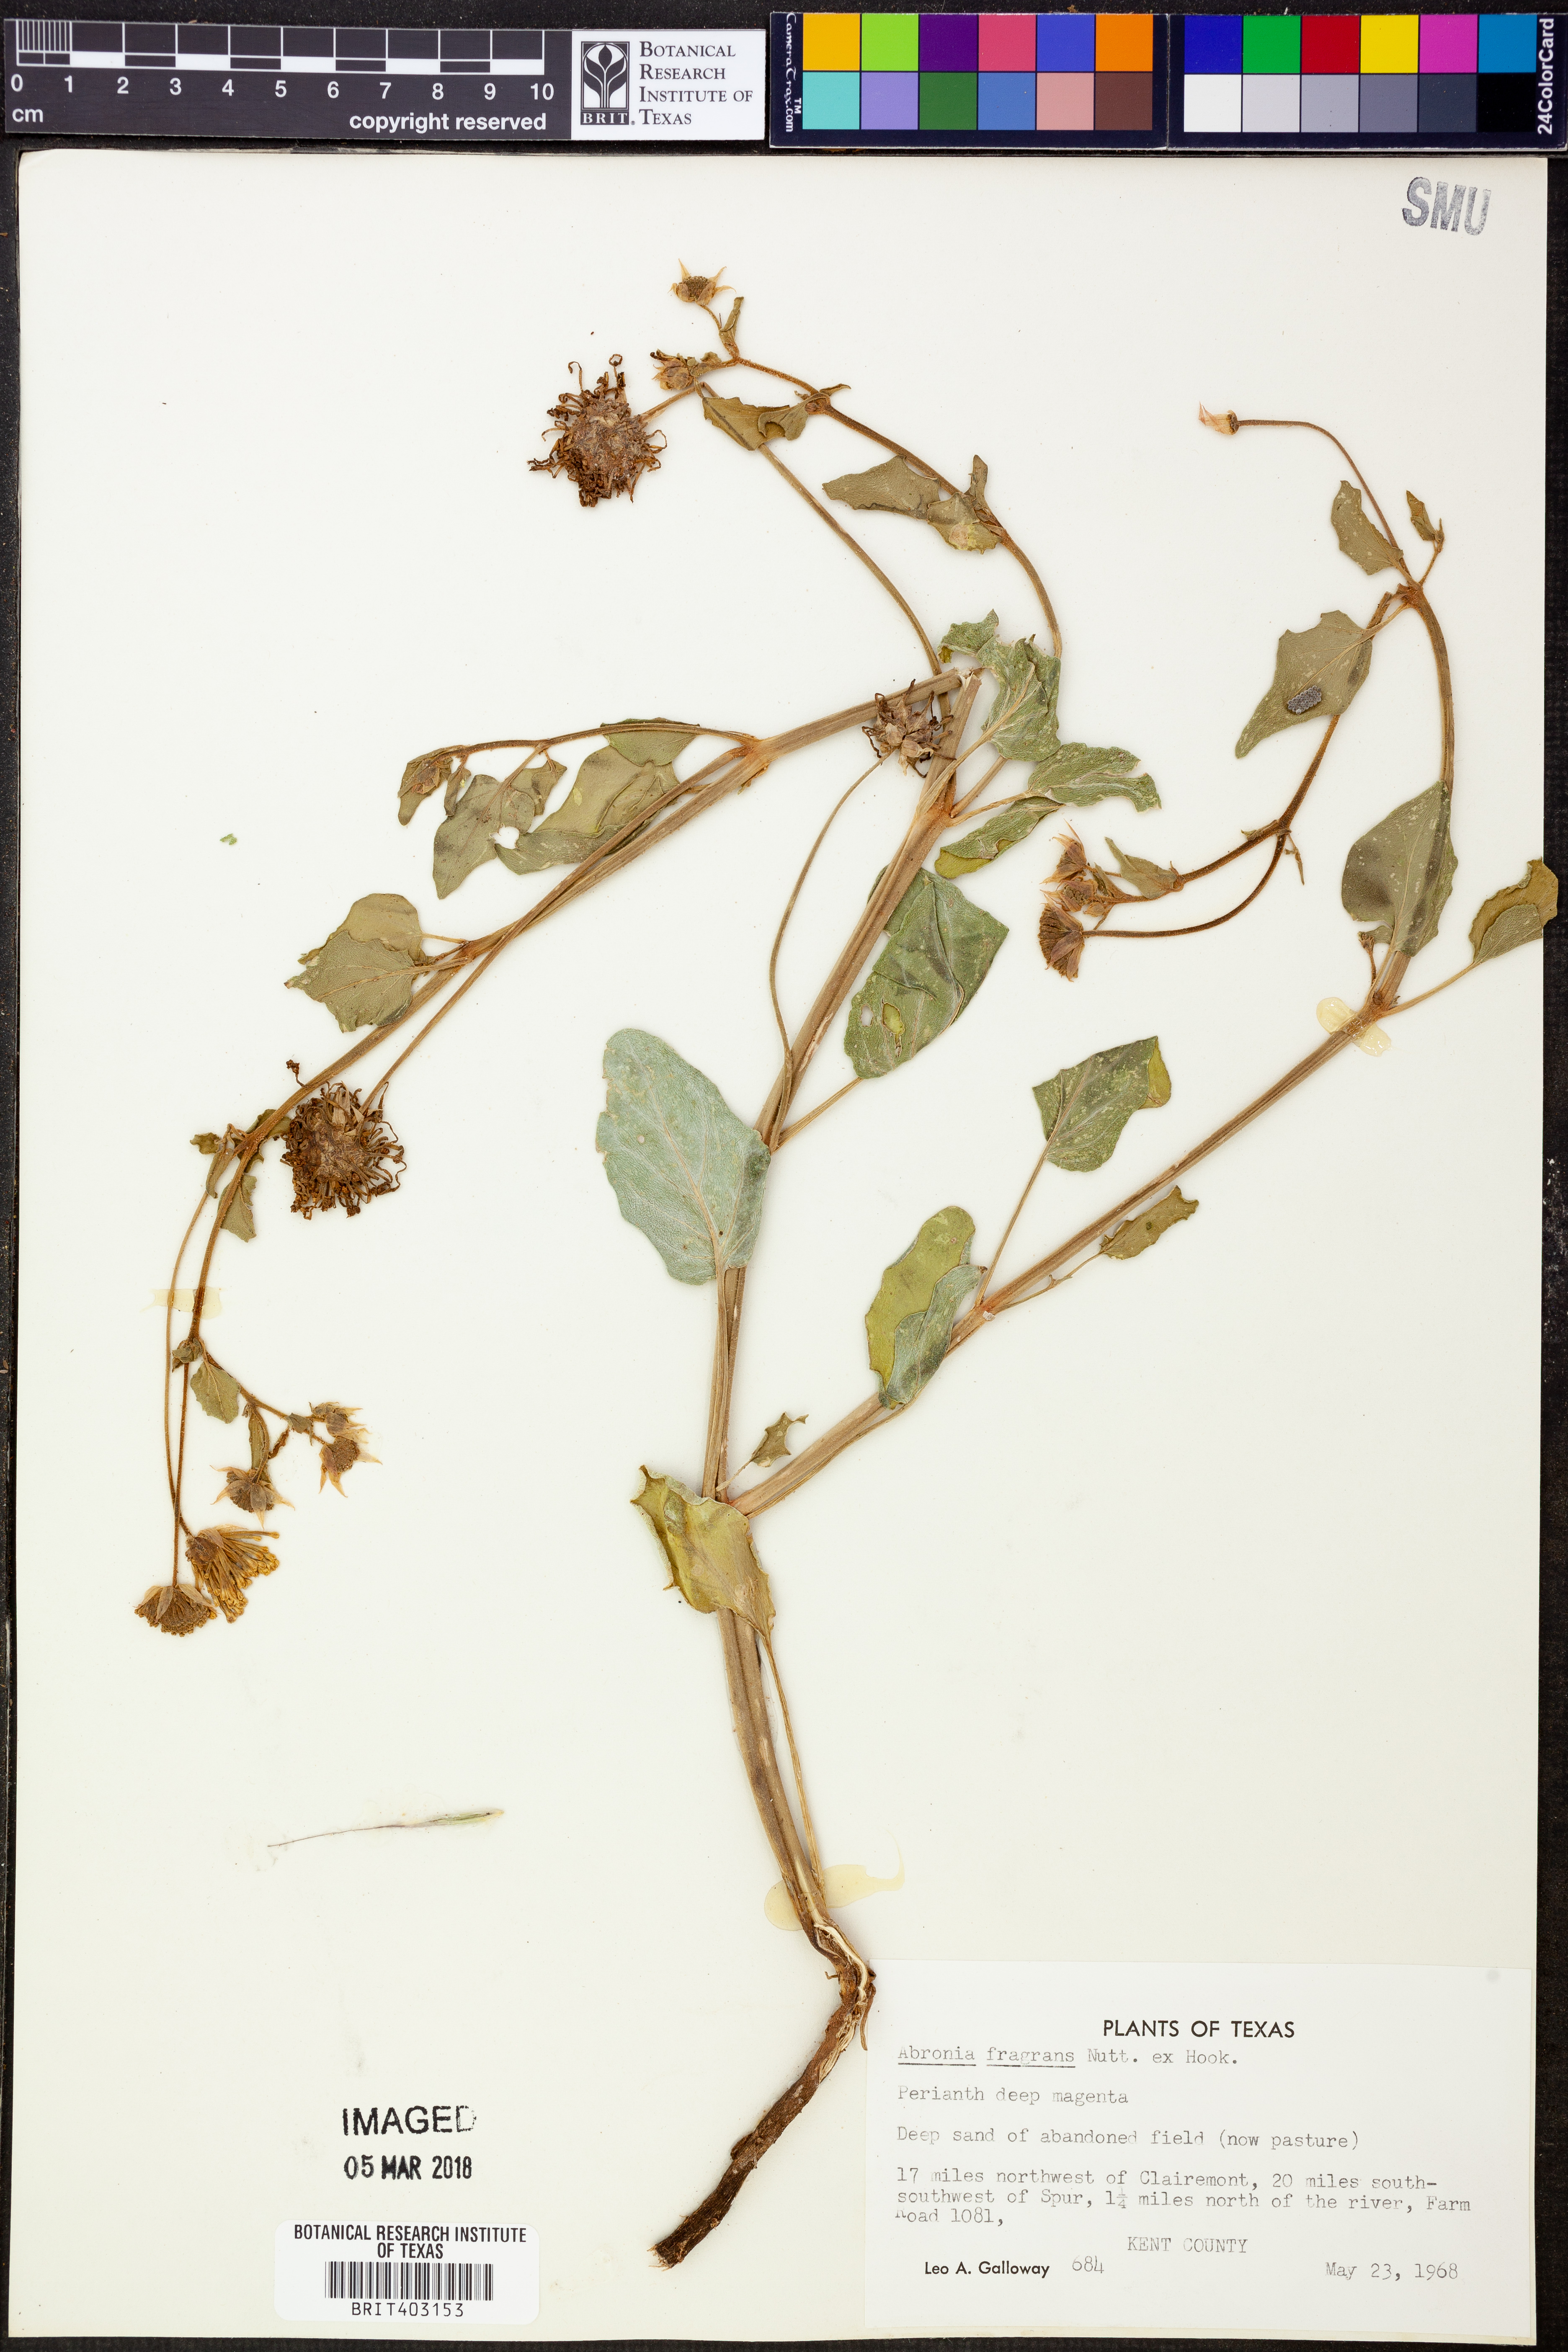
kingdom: Plantae
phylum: Tracheophyta
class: Magnoliopsida
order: Caryophyllales
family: Nyctaginaceae
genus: Abronia
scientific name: Abronia fragrans
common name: Fragrant sand-verbena
